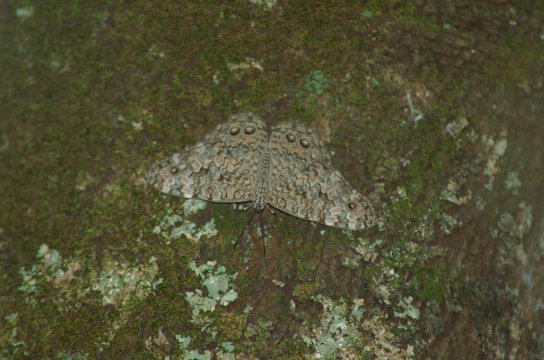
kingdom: Animalia
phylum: Arthropoda
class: Insecta
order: Lepidoptera
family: Nymphalidae
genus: Hamadryas
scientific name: Hamadryas
